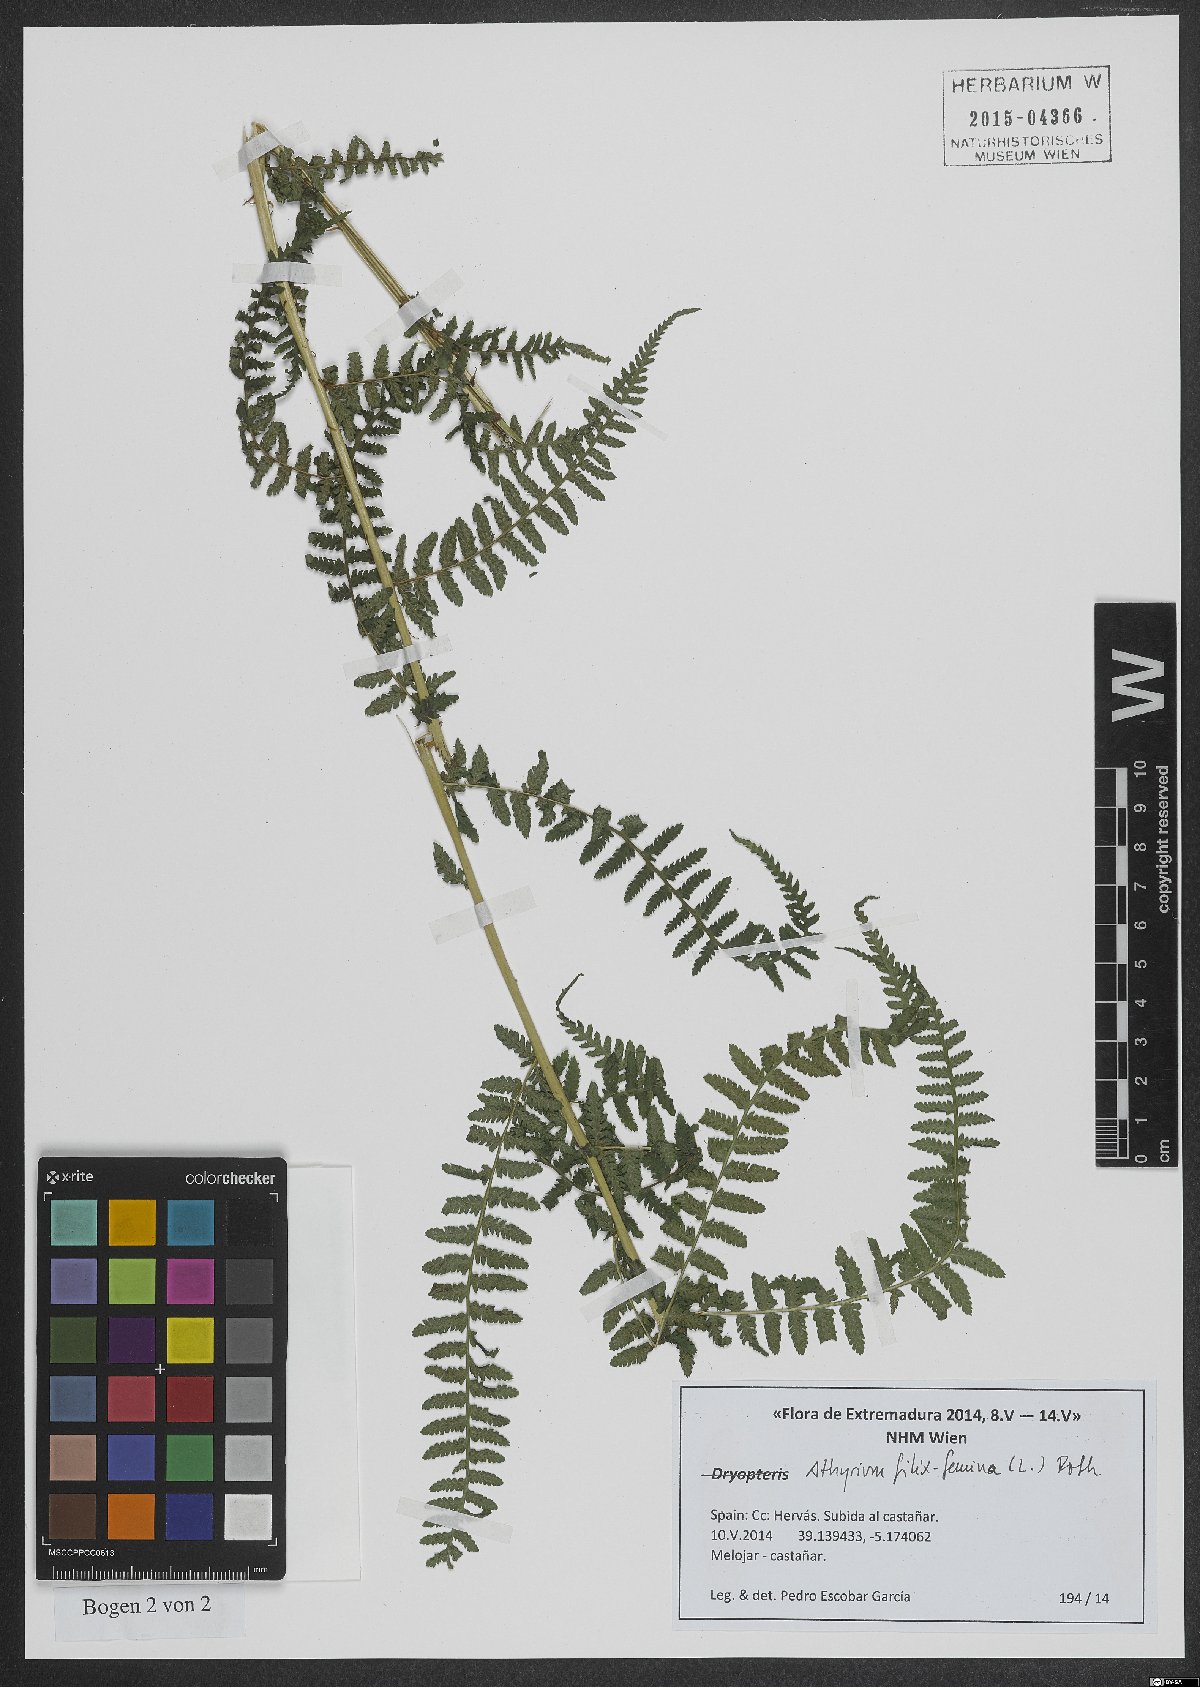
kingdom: Plantae
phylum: Tracheophyta
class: Polypodiopsida
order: Polypodiales
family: Athyriaceae
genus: Athyrium
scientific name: Athyrium filix-femina
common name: Lady fern
